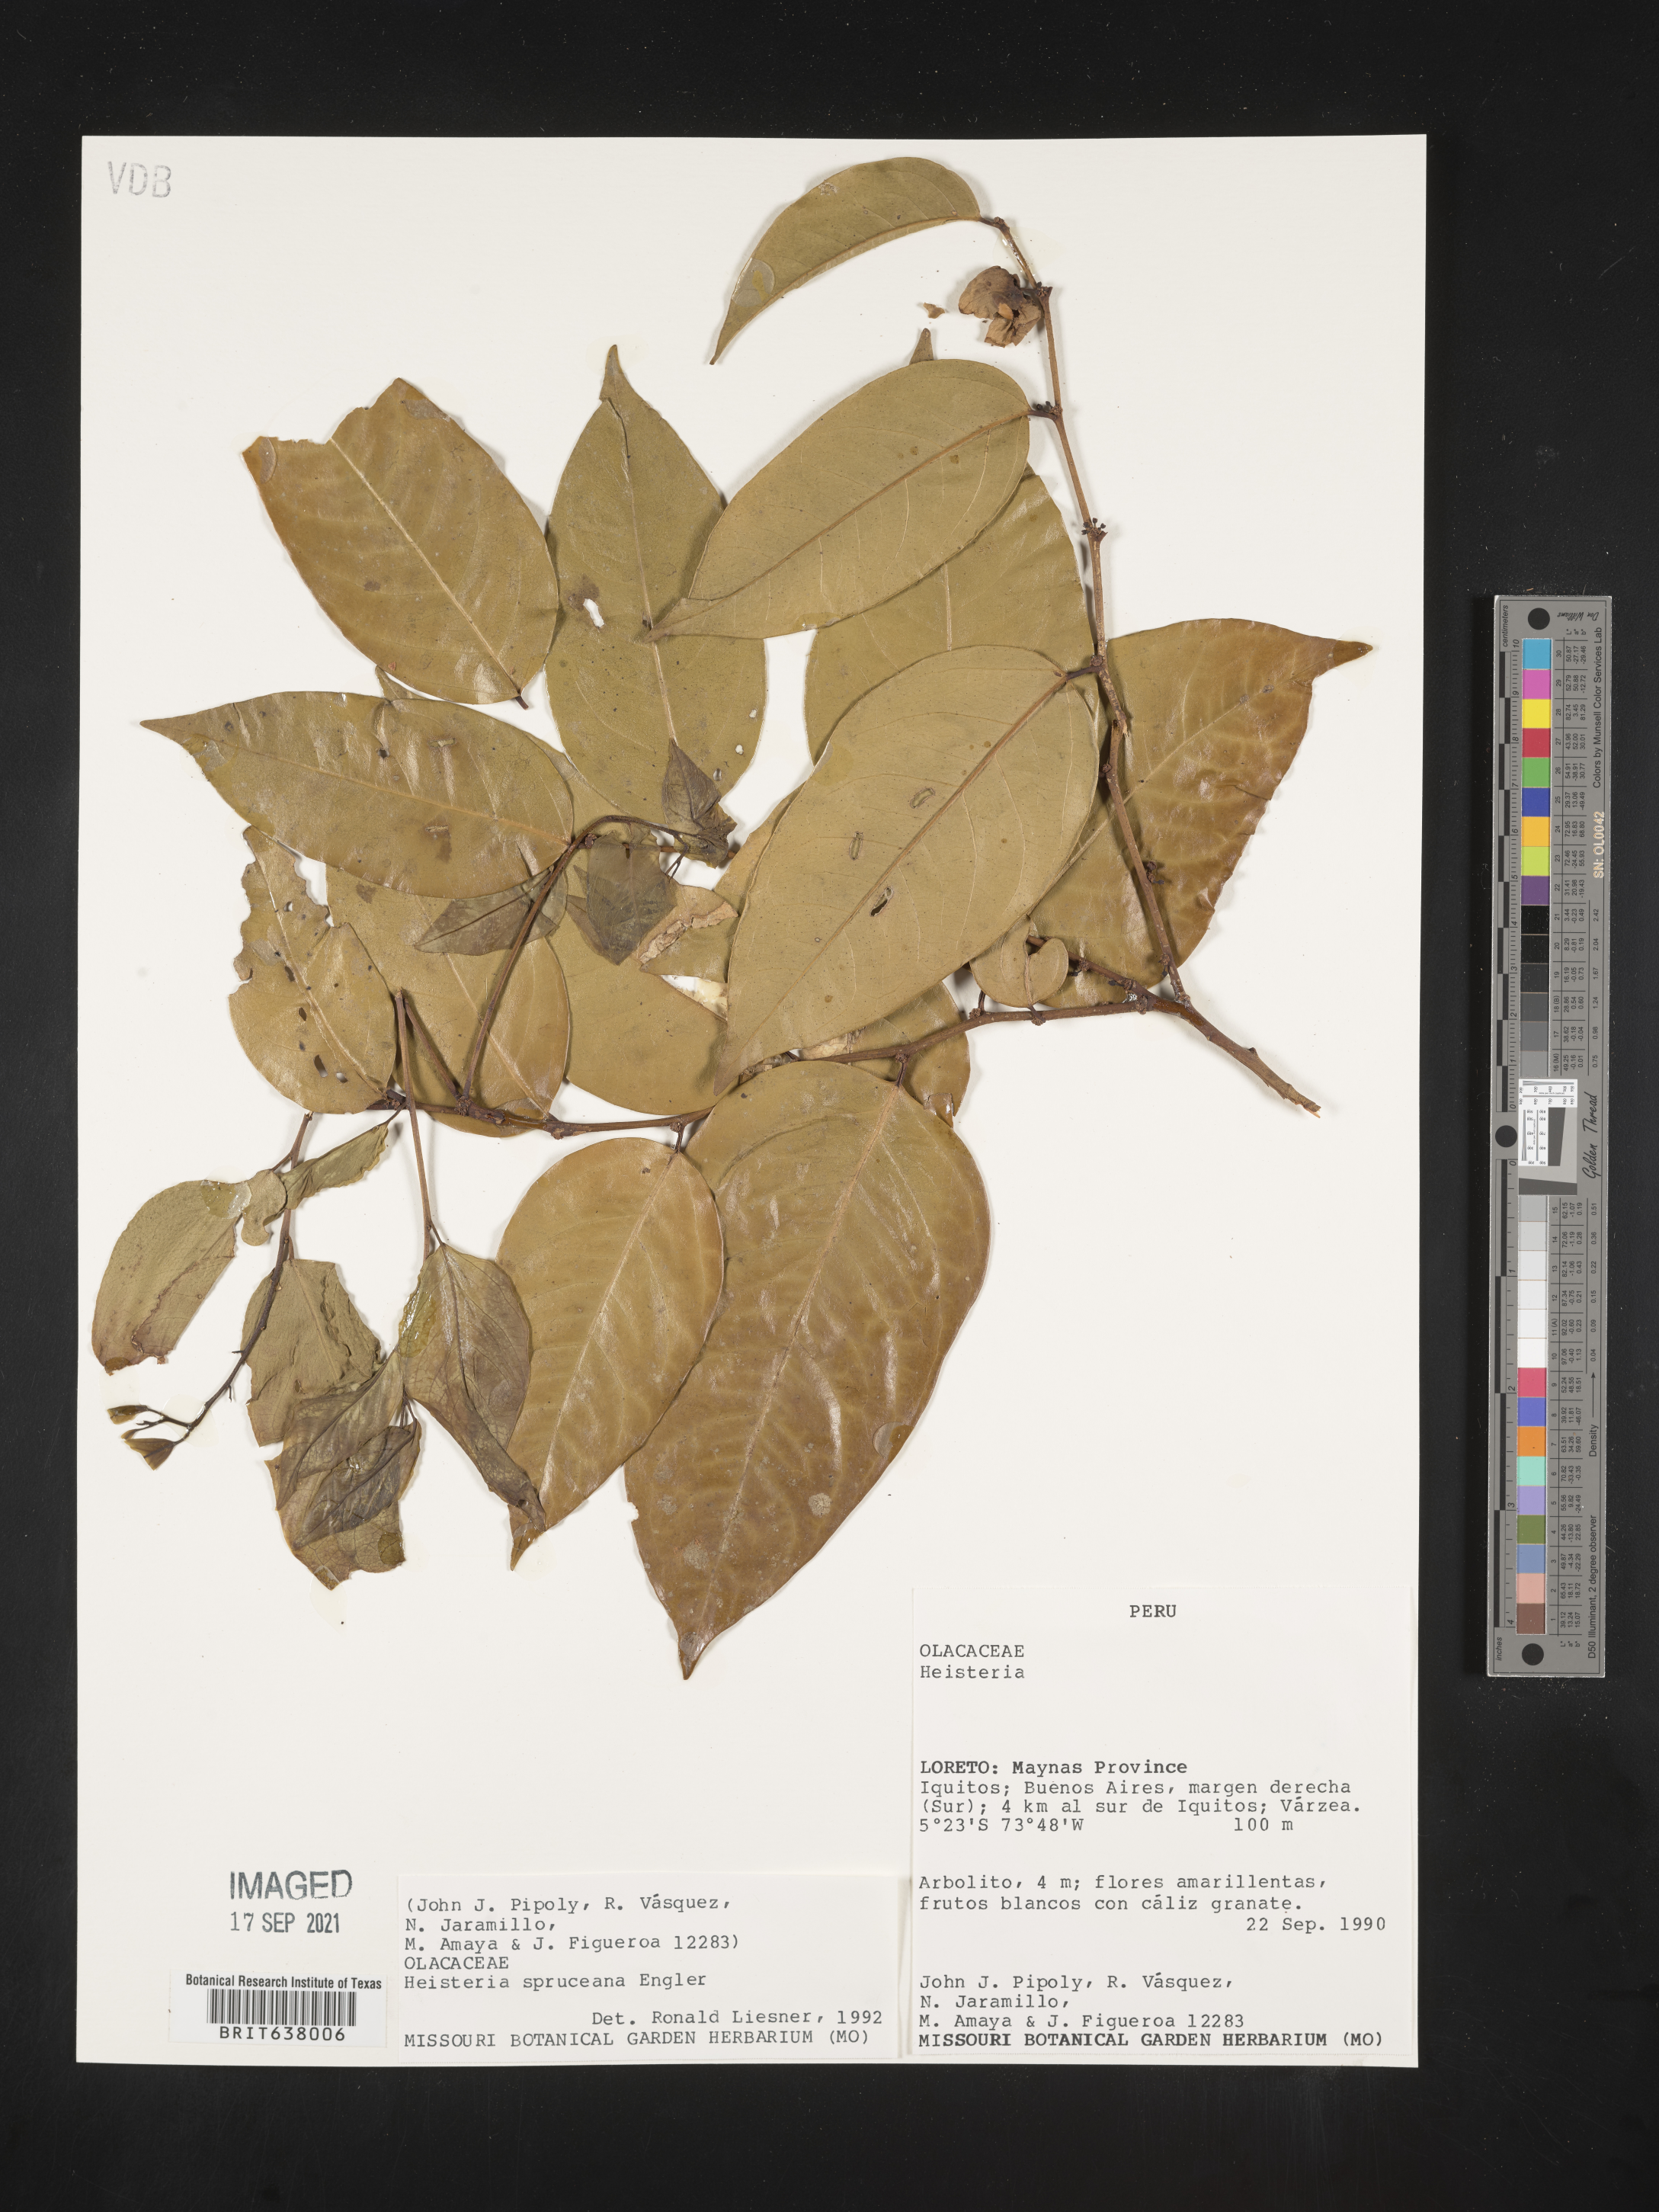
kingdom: Plantae
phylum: Tracheophyta
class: Magnoliopsida
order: Santalales
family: Erythropalaceae
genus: Heisteria
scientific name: Heisteria
